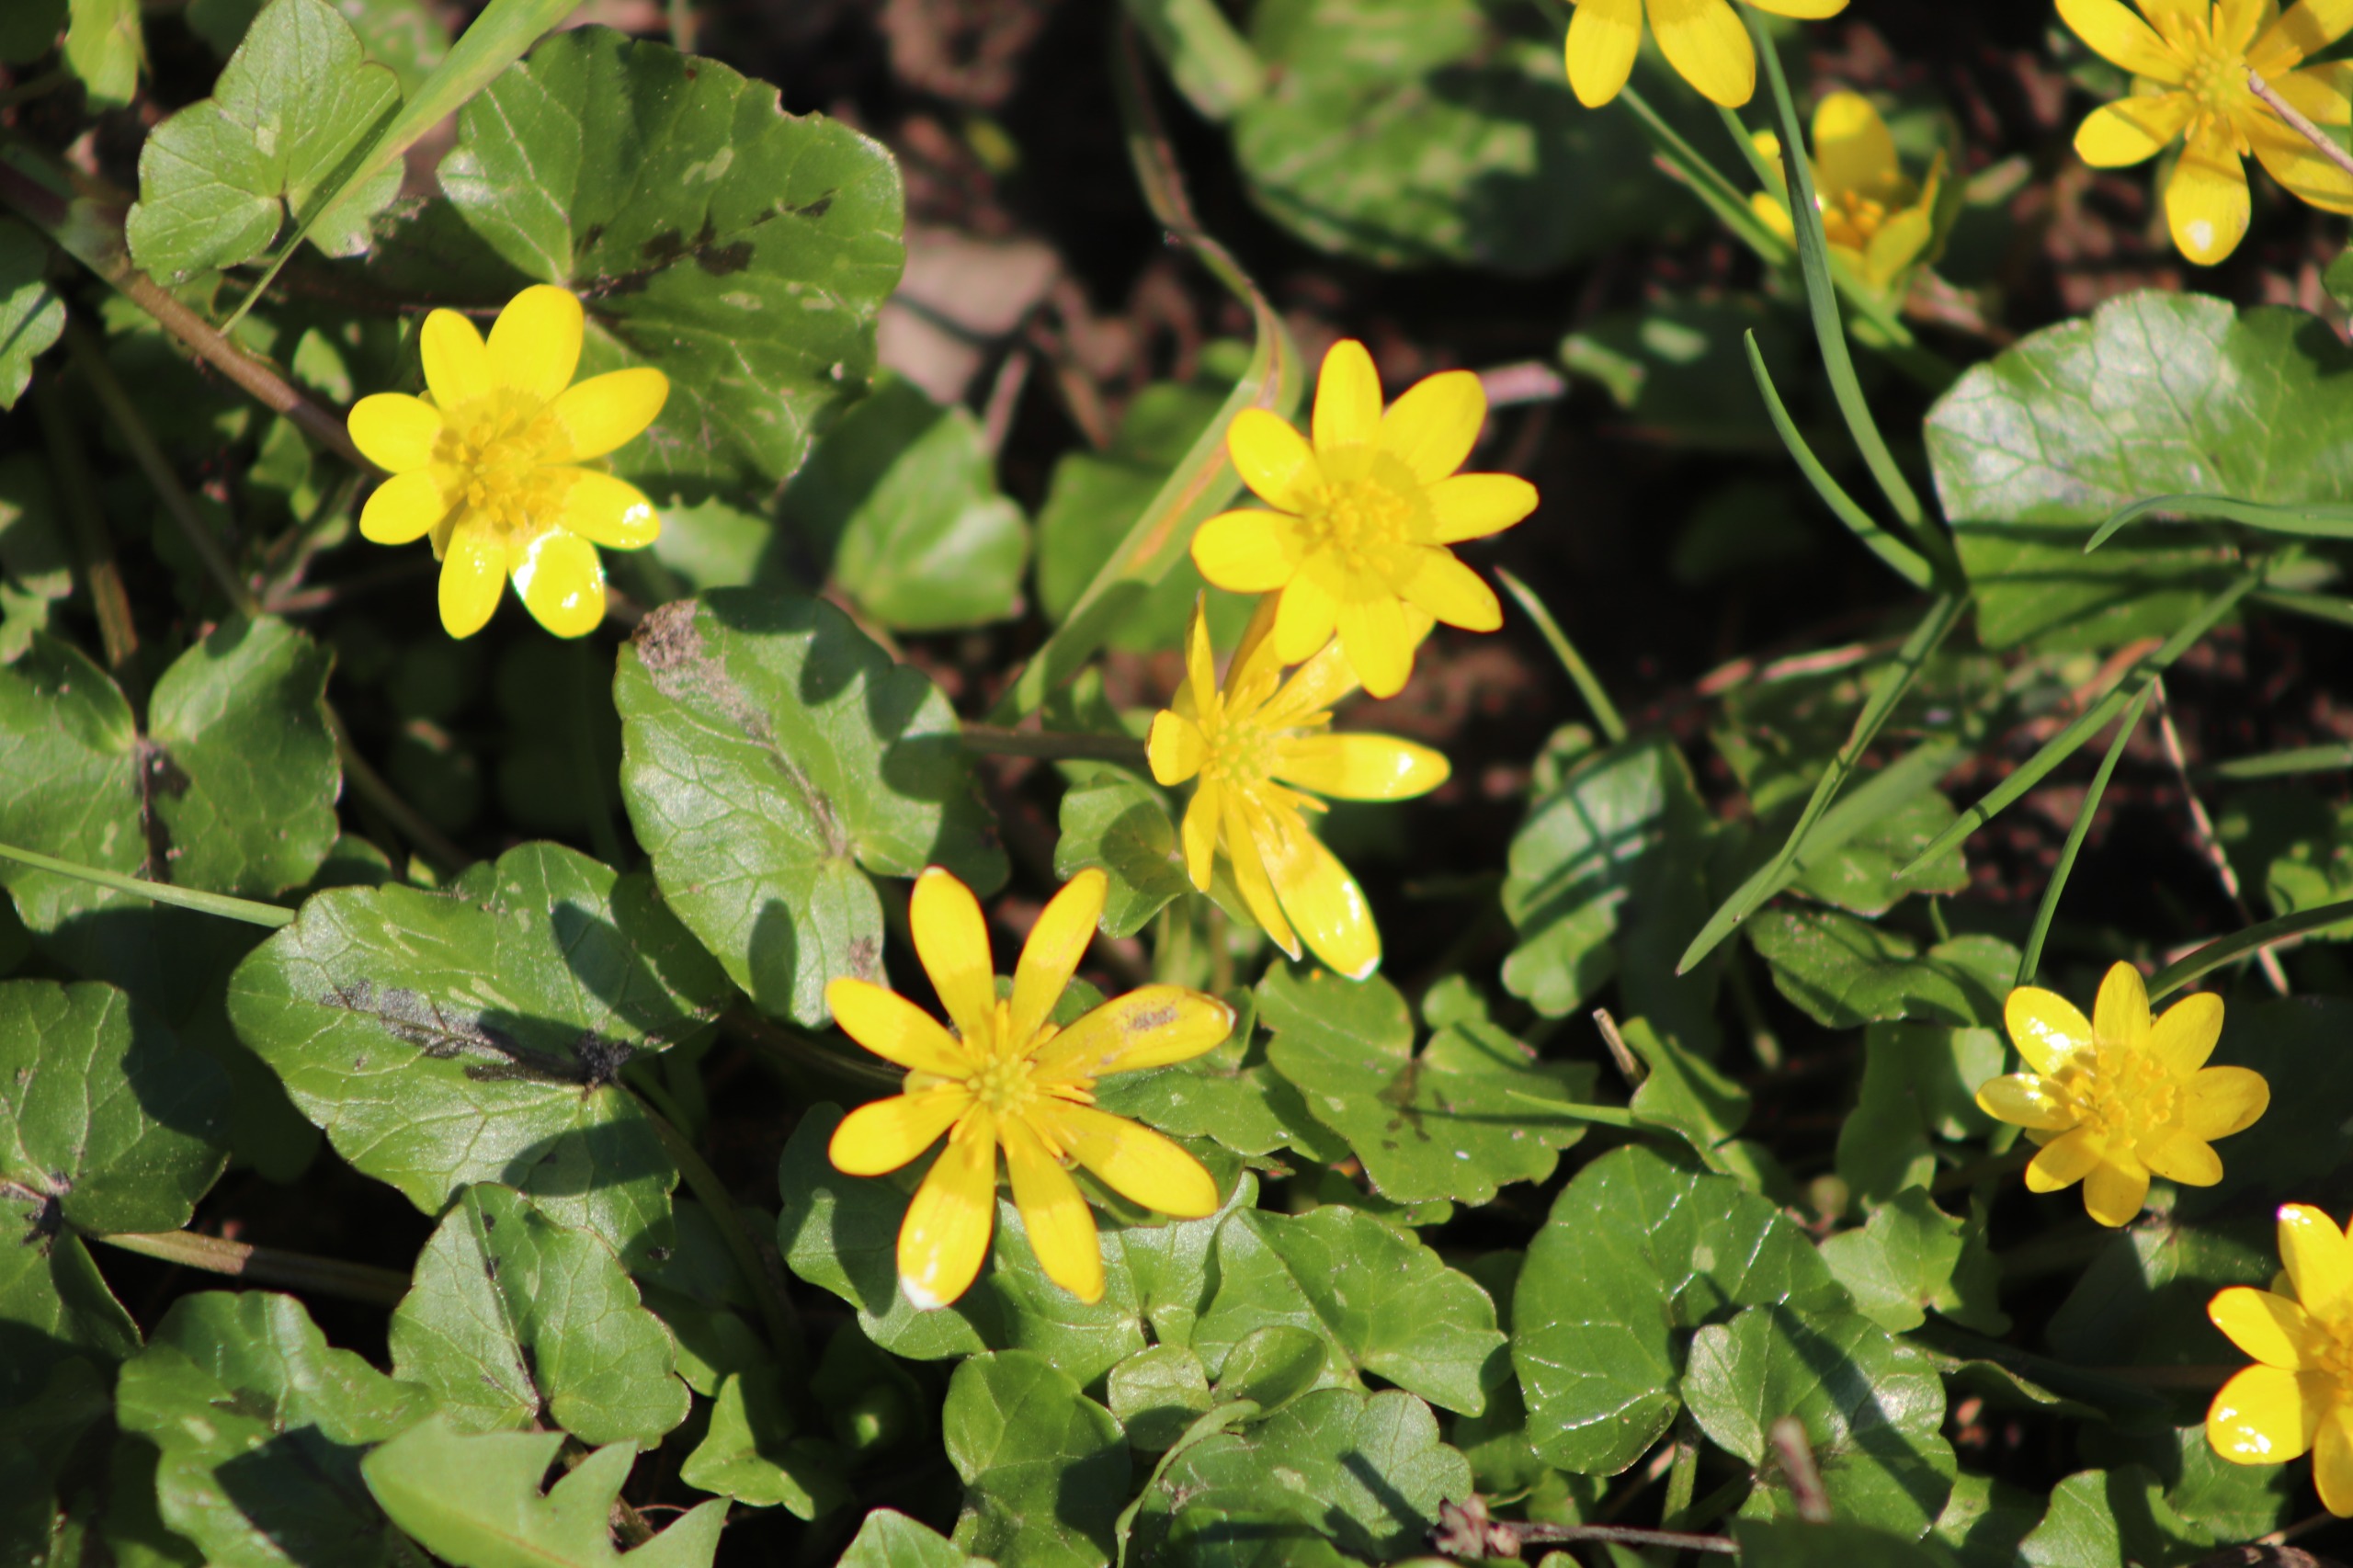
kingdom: Plantae
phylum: Tracheophyta
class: Magnoliopsida
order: Ranunculales
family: Ranunculaceae
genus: Ficaria
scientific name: Ficaria verna
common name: Vorterod
